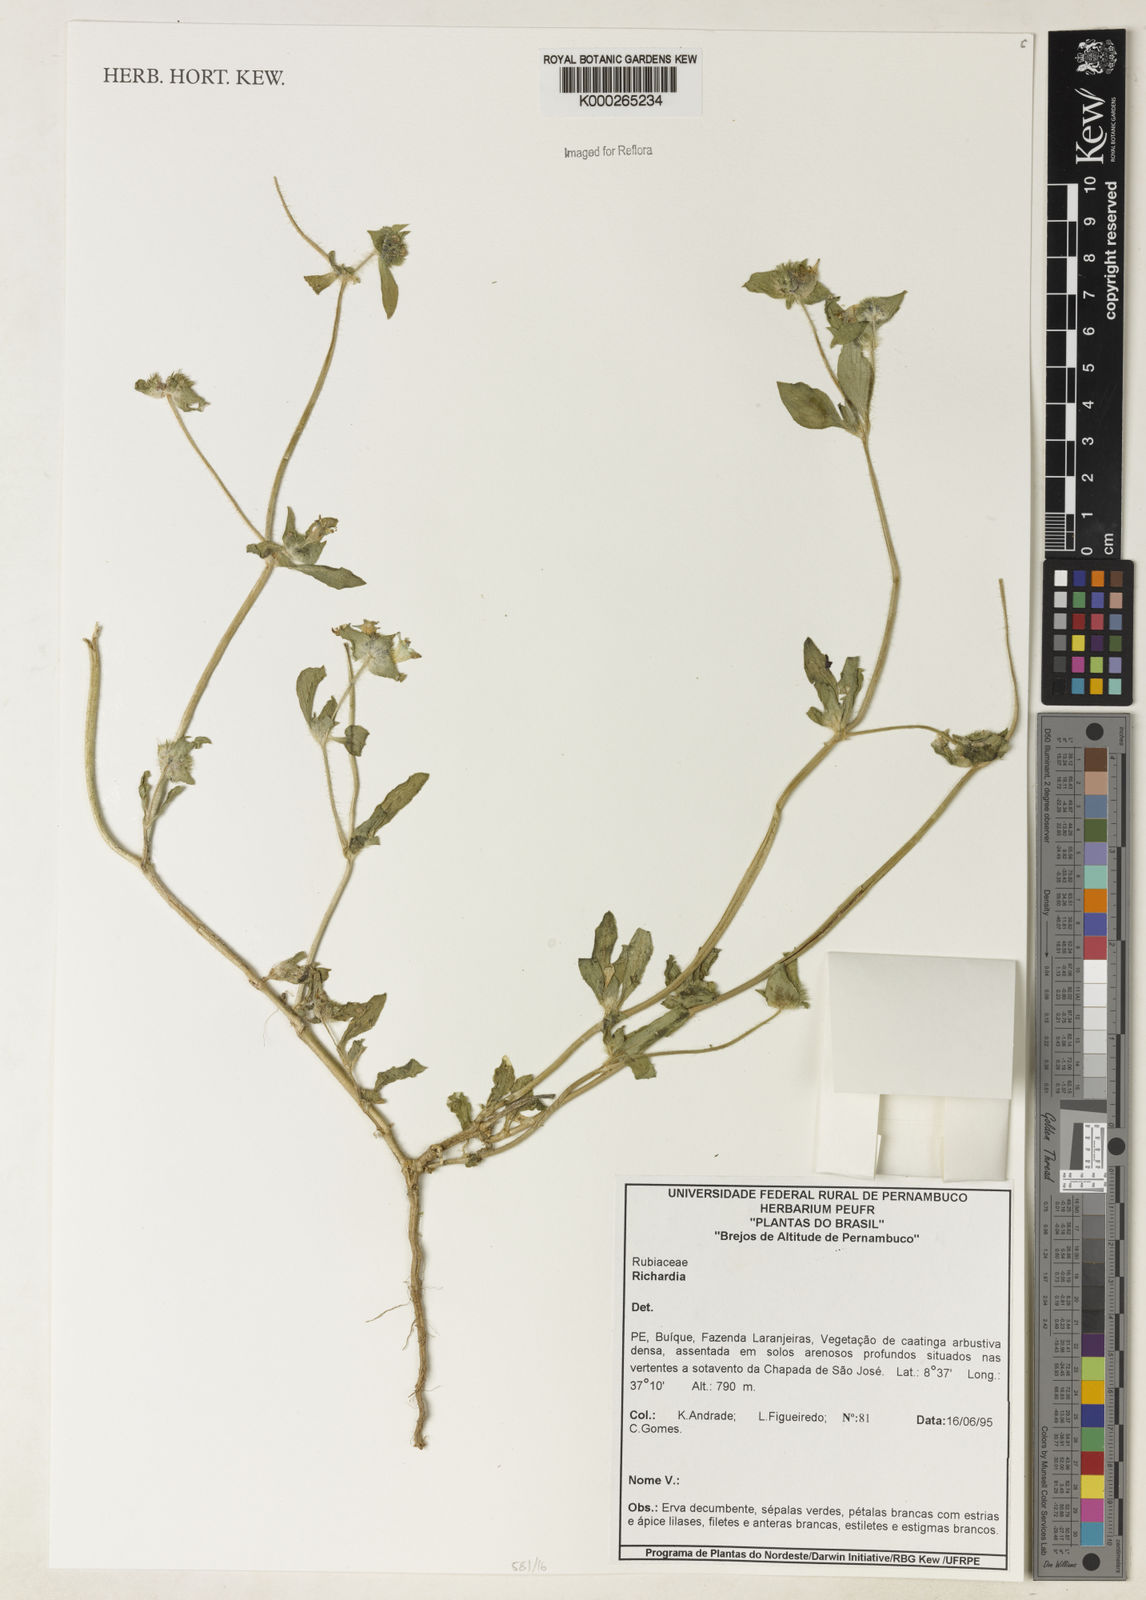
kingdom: Plantae
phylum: Tracheophyta
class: Magnoliopsida
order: Gentianales
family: Rubiaceae
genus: Richardia
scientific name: Richardia
